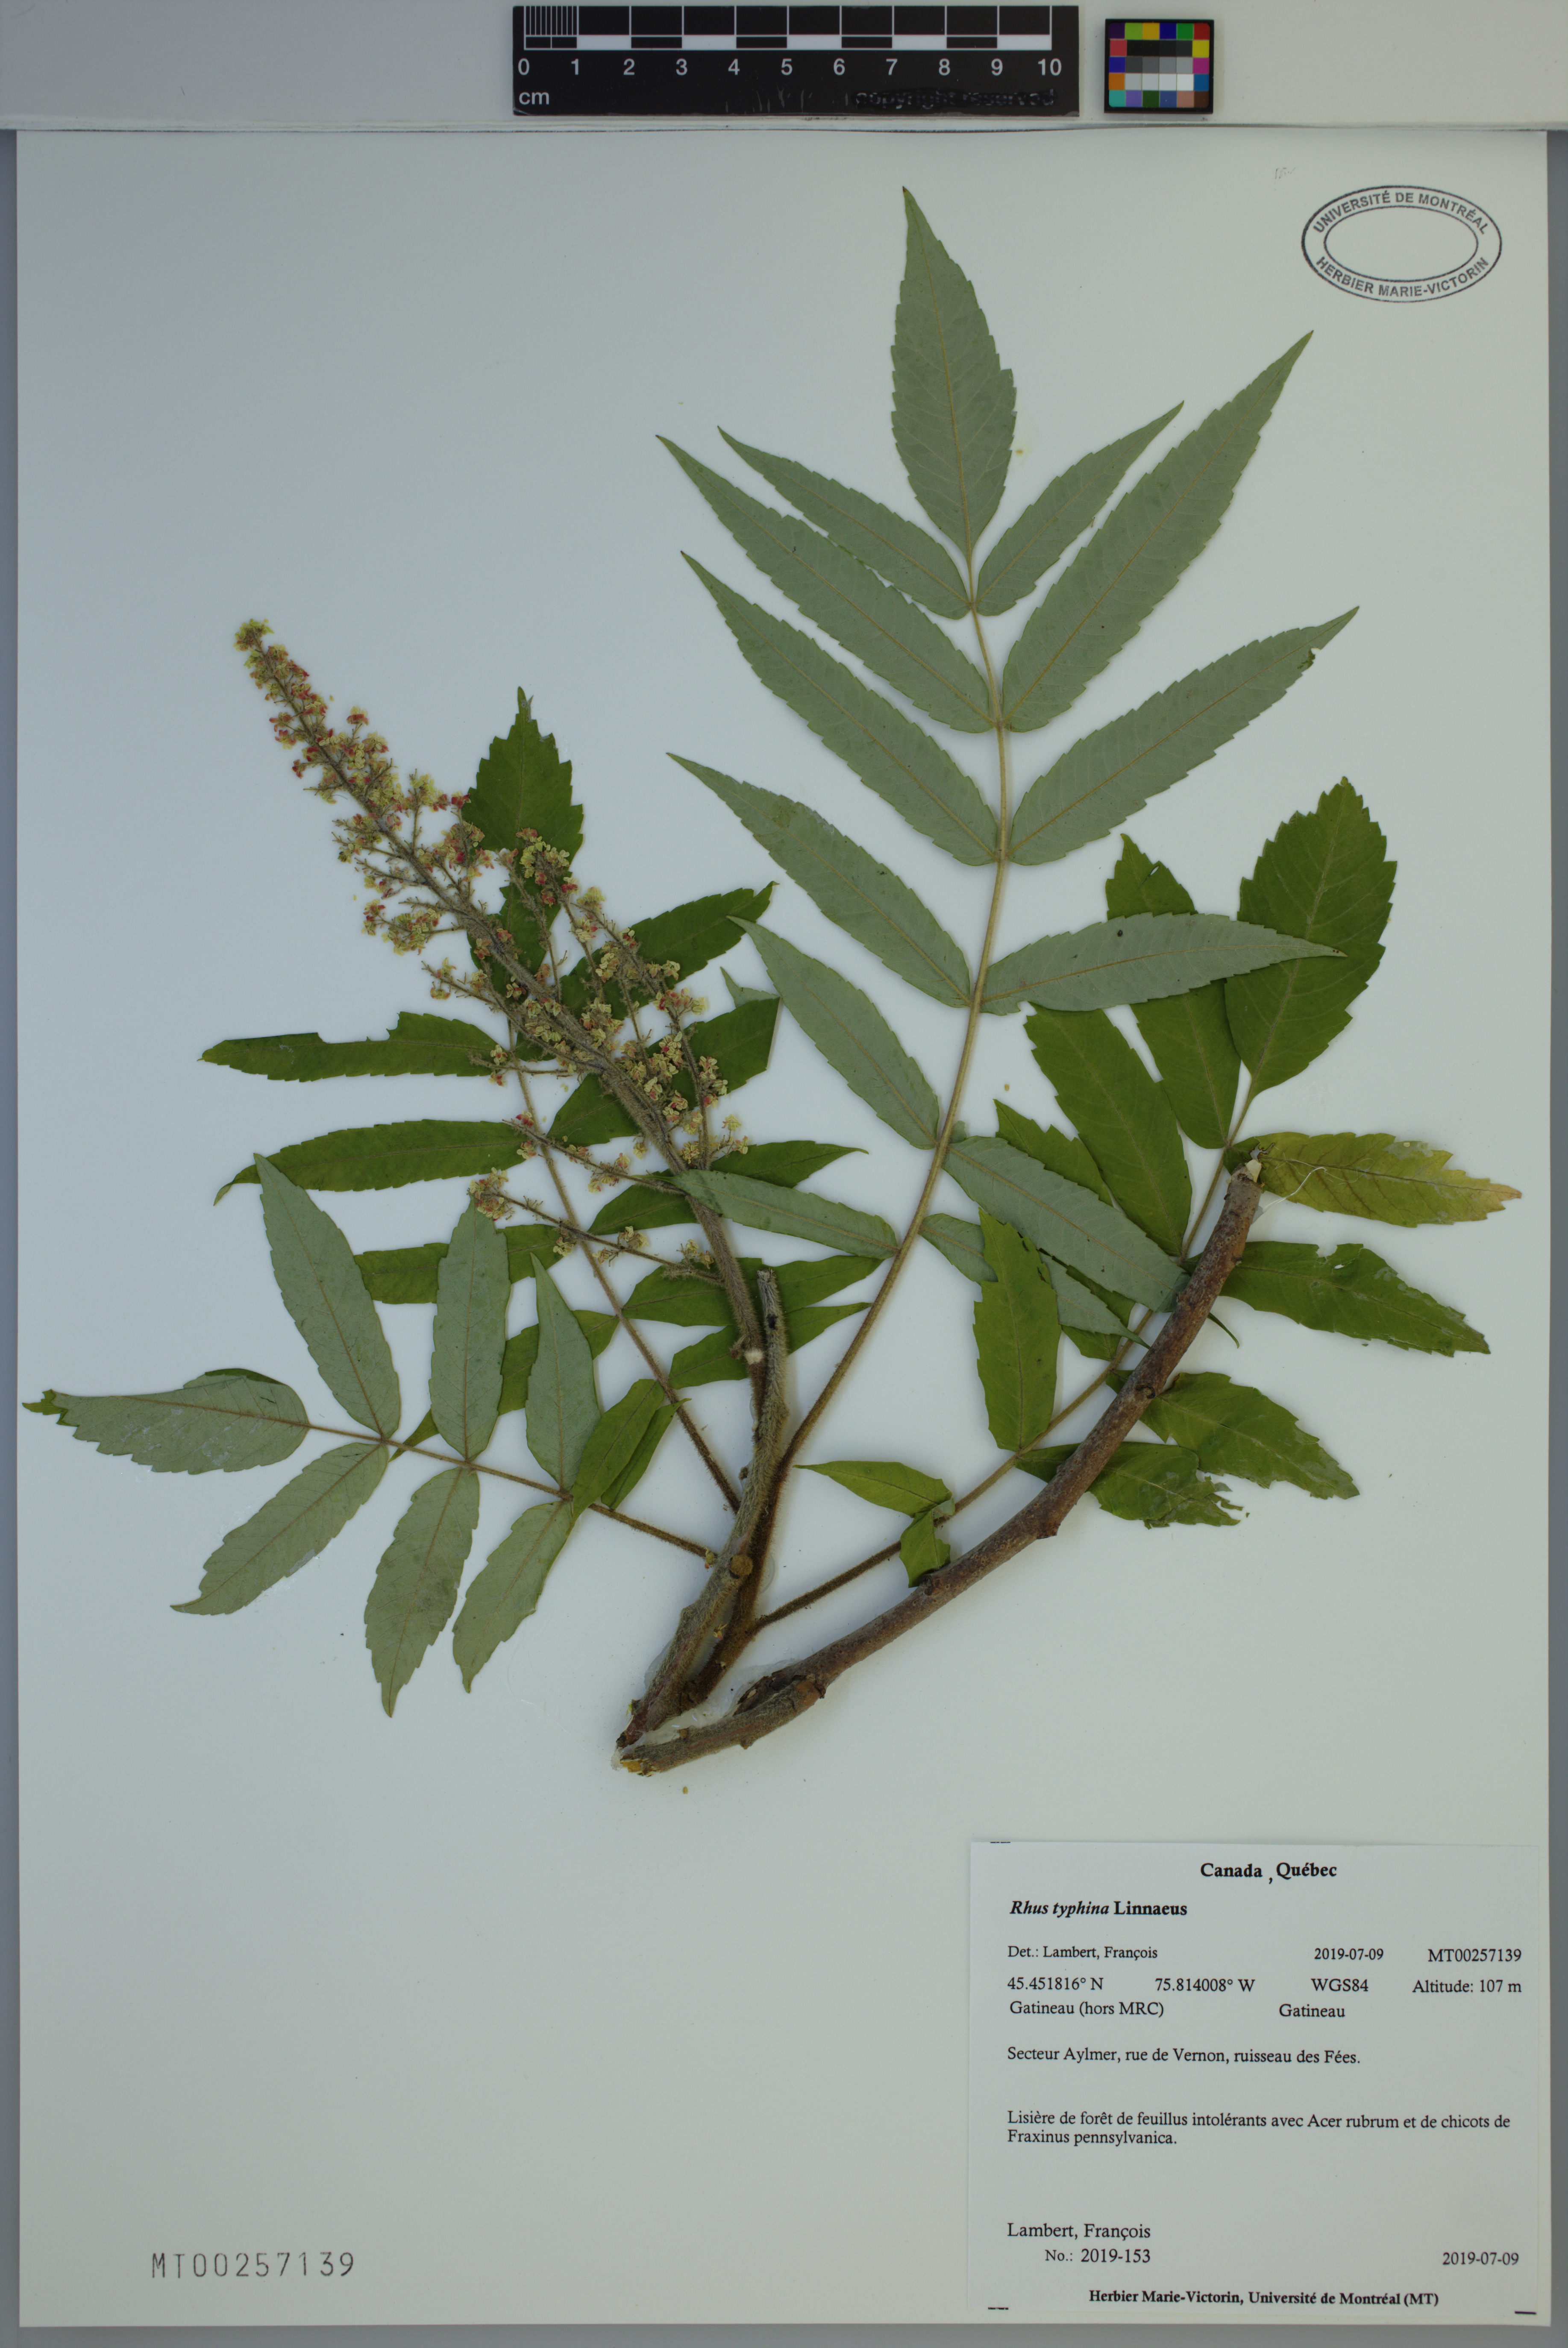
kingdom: Plantae
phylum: Tracheophyta
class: Magnoliopsida
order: Sapindales
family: Anacardiaceae
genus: Rhus
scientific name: Rhus typhina
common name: Staghorn sumac
